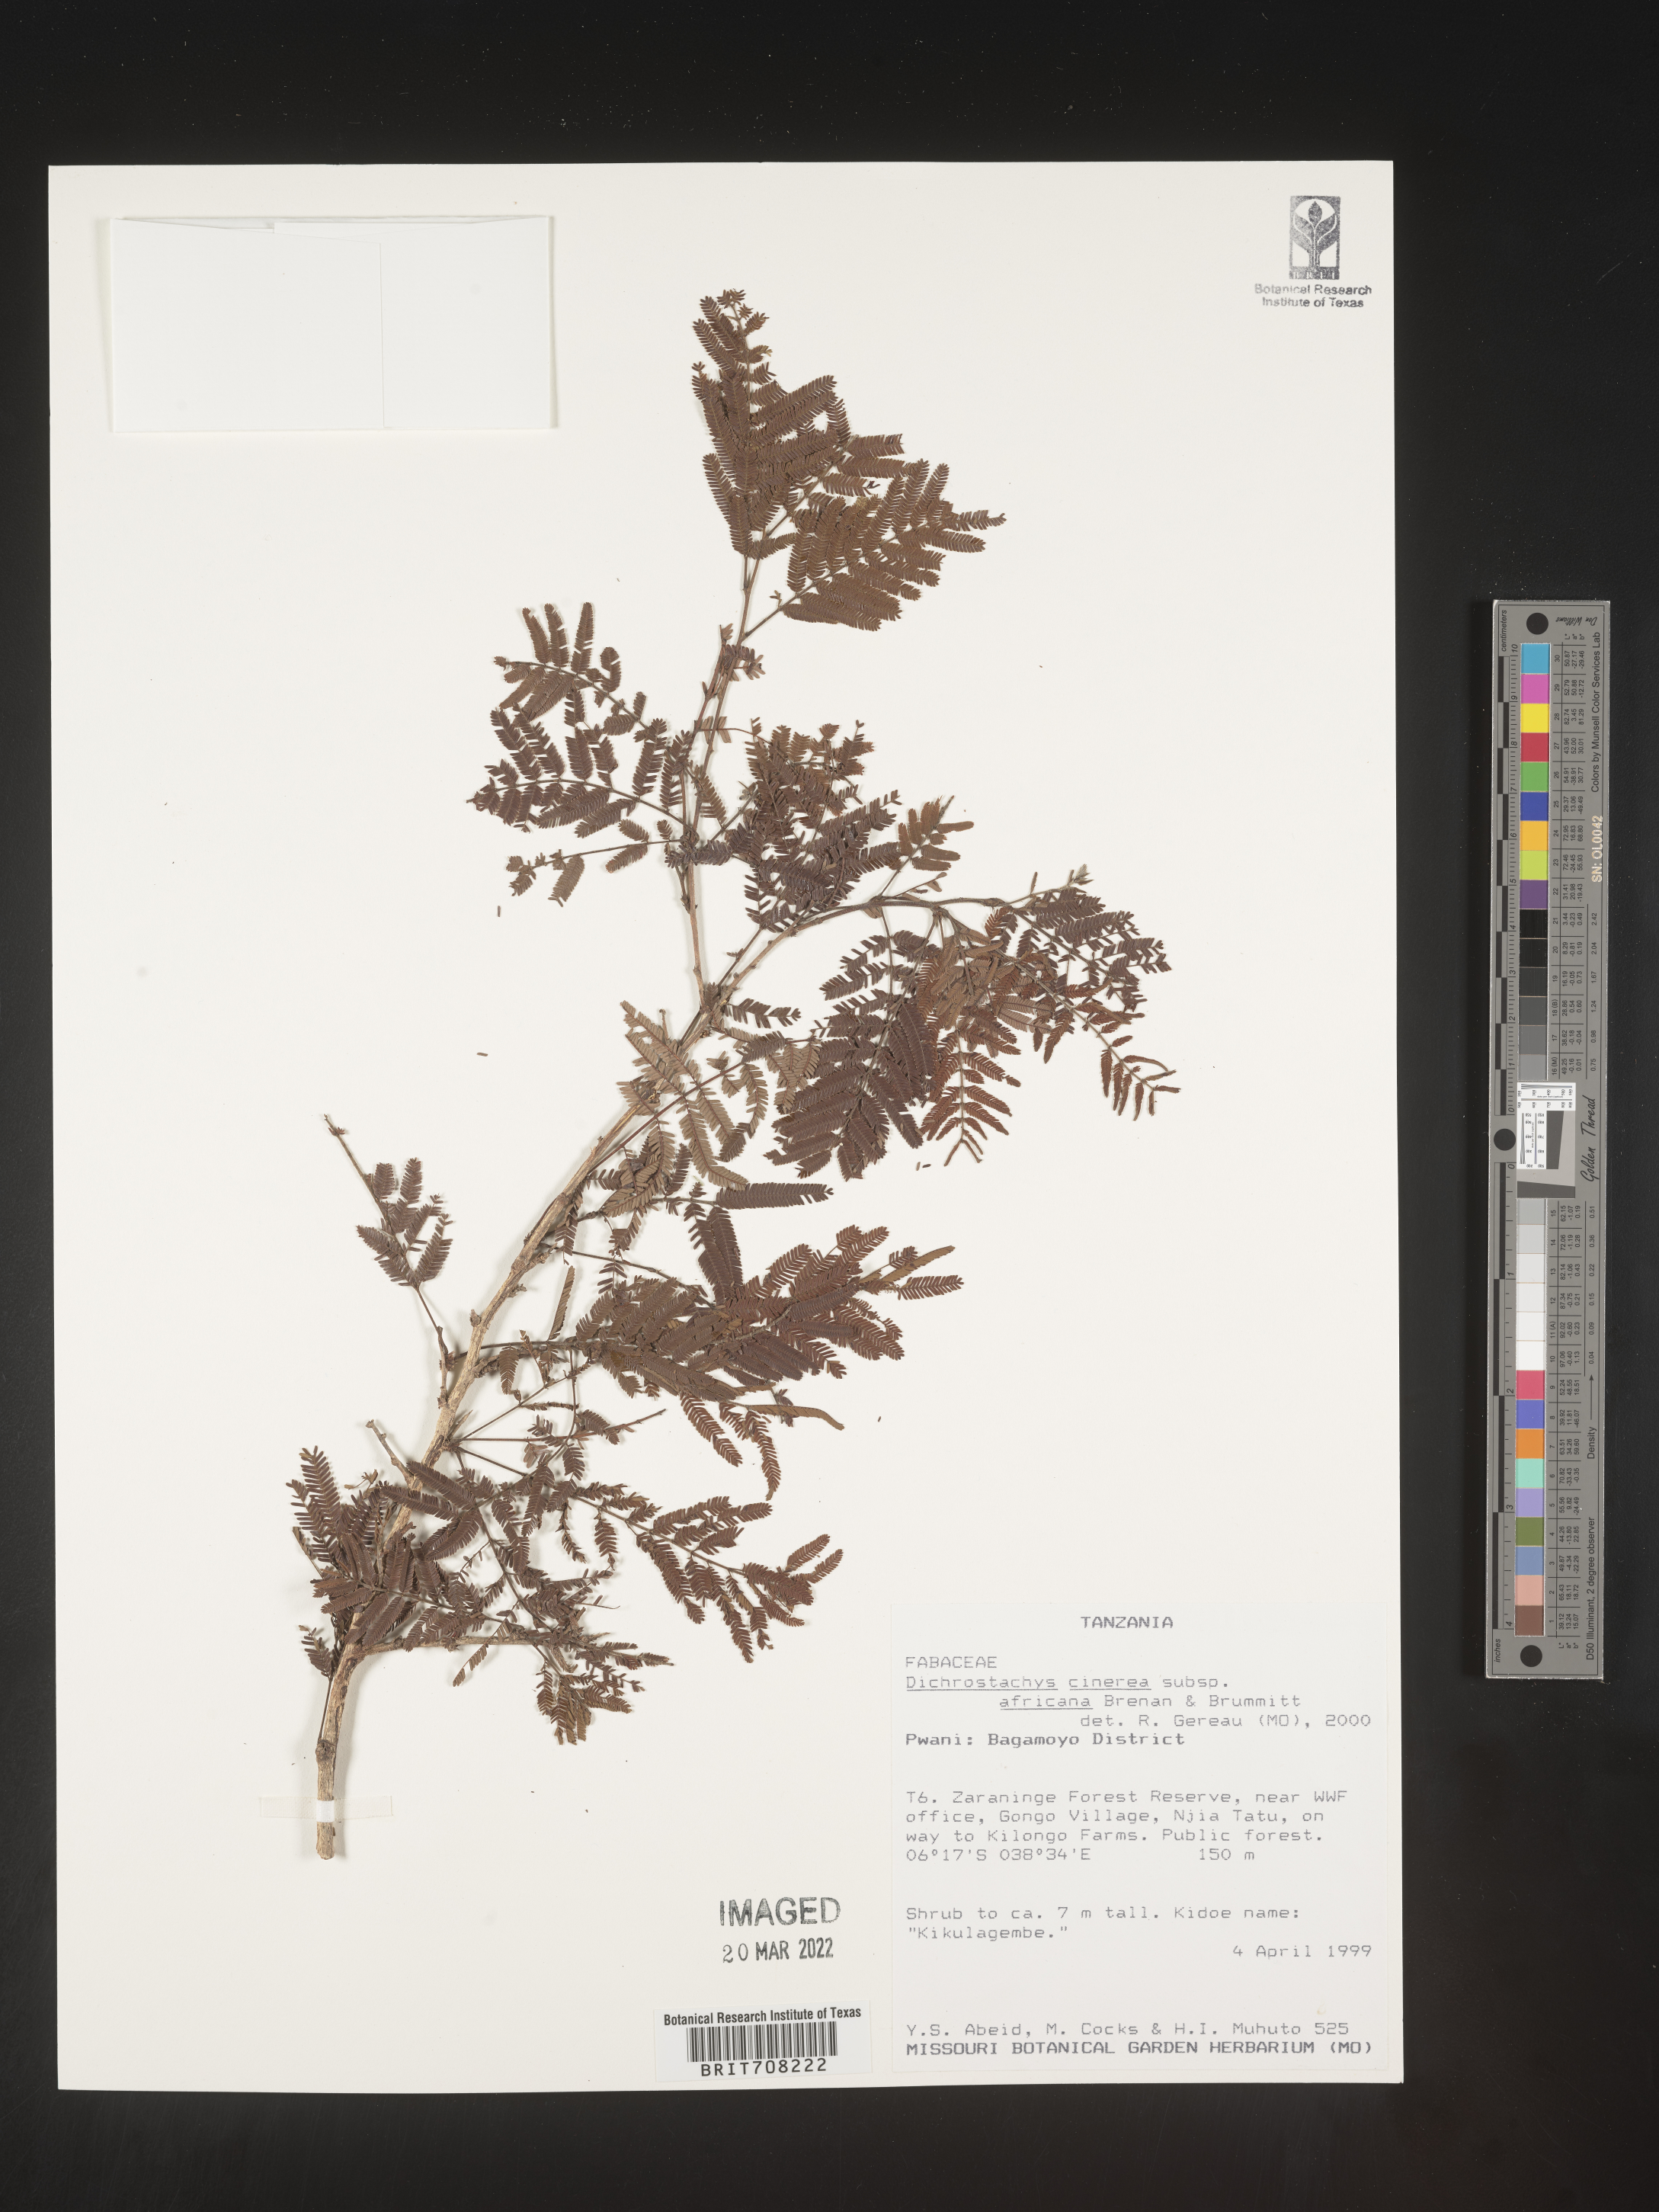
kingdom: Plantae
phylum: Tracheophyta
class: Magnoliopsida
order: Fabales
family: Fabaceae
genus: Dichrostachys
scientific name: Dichrostachys
